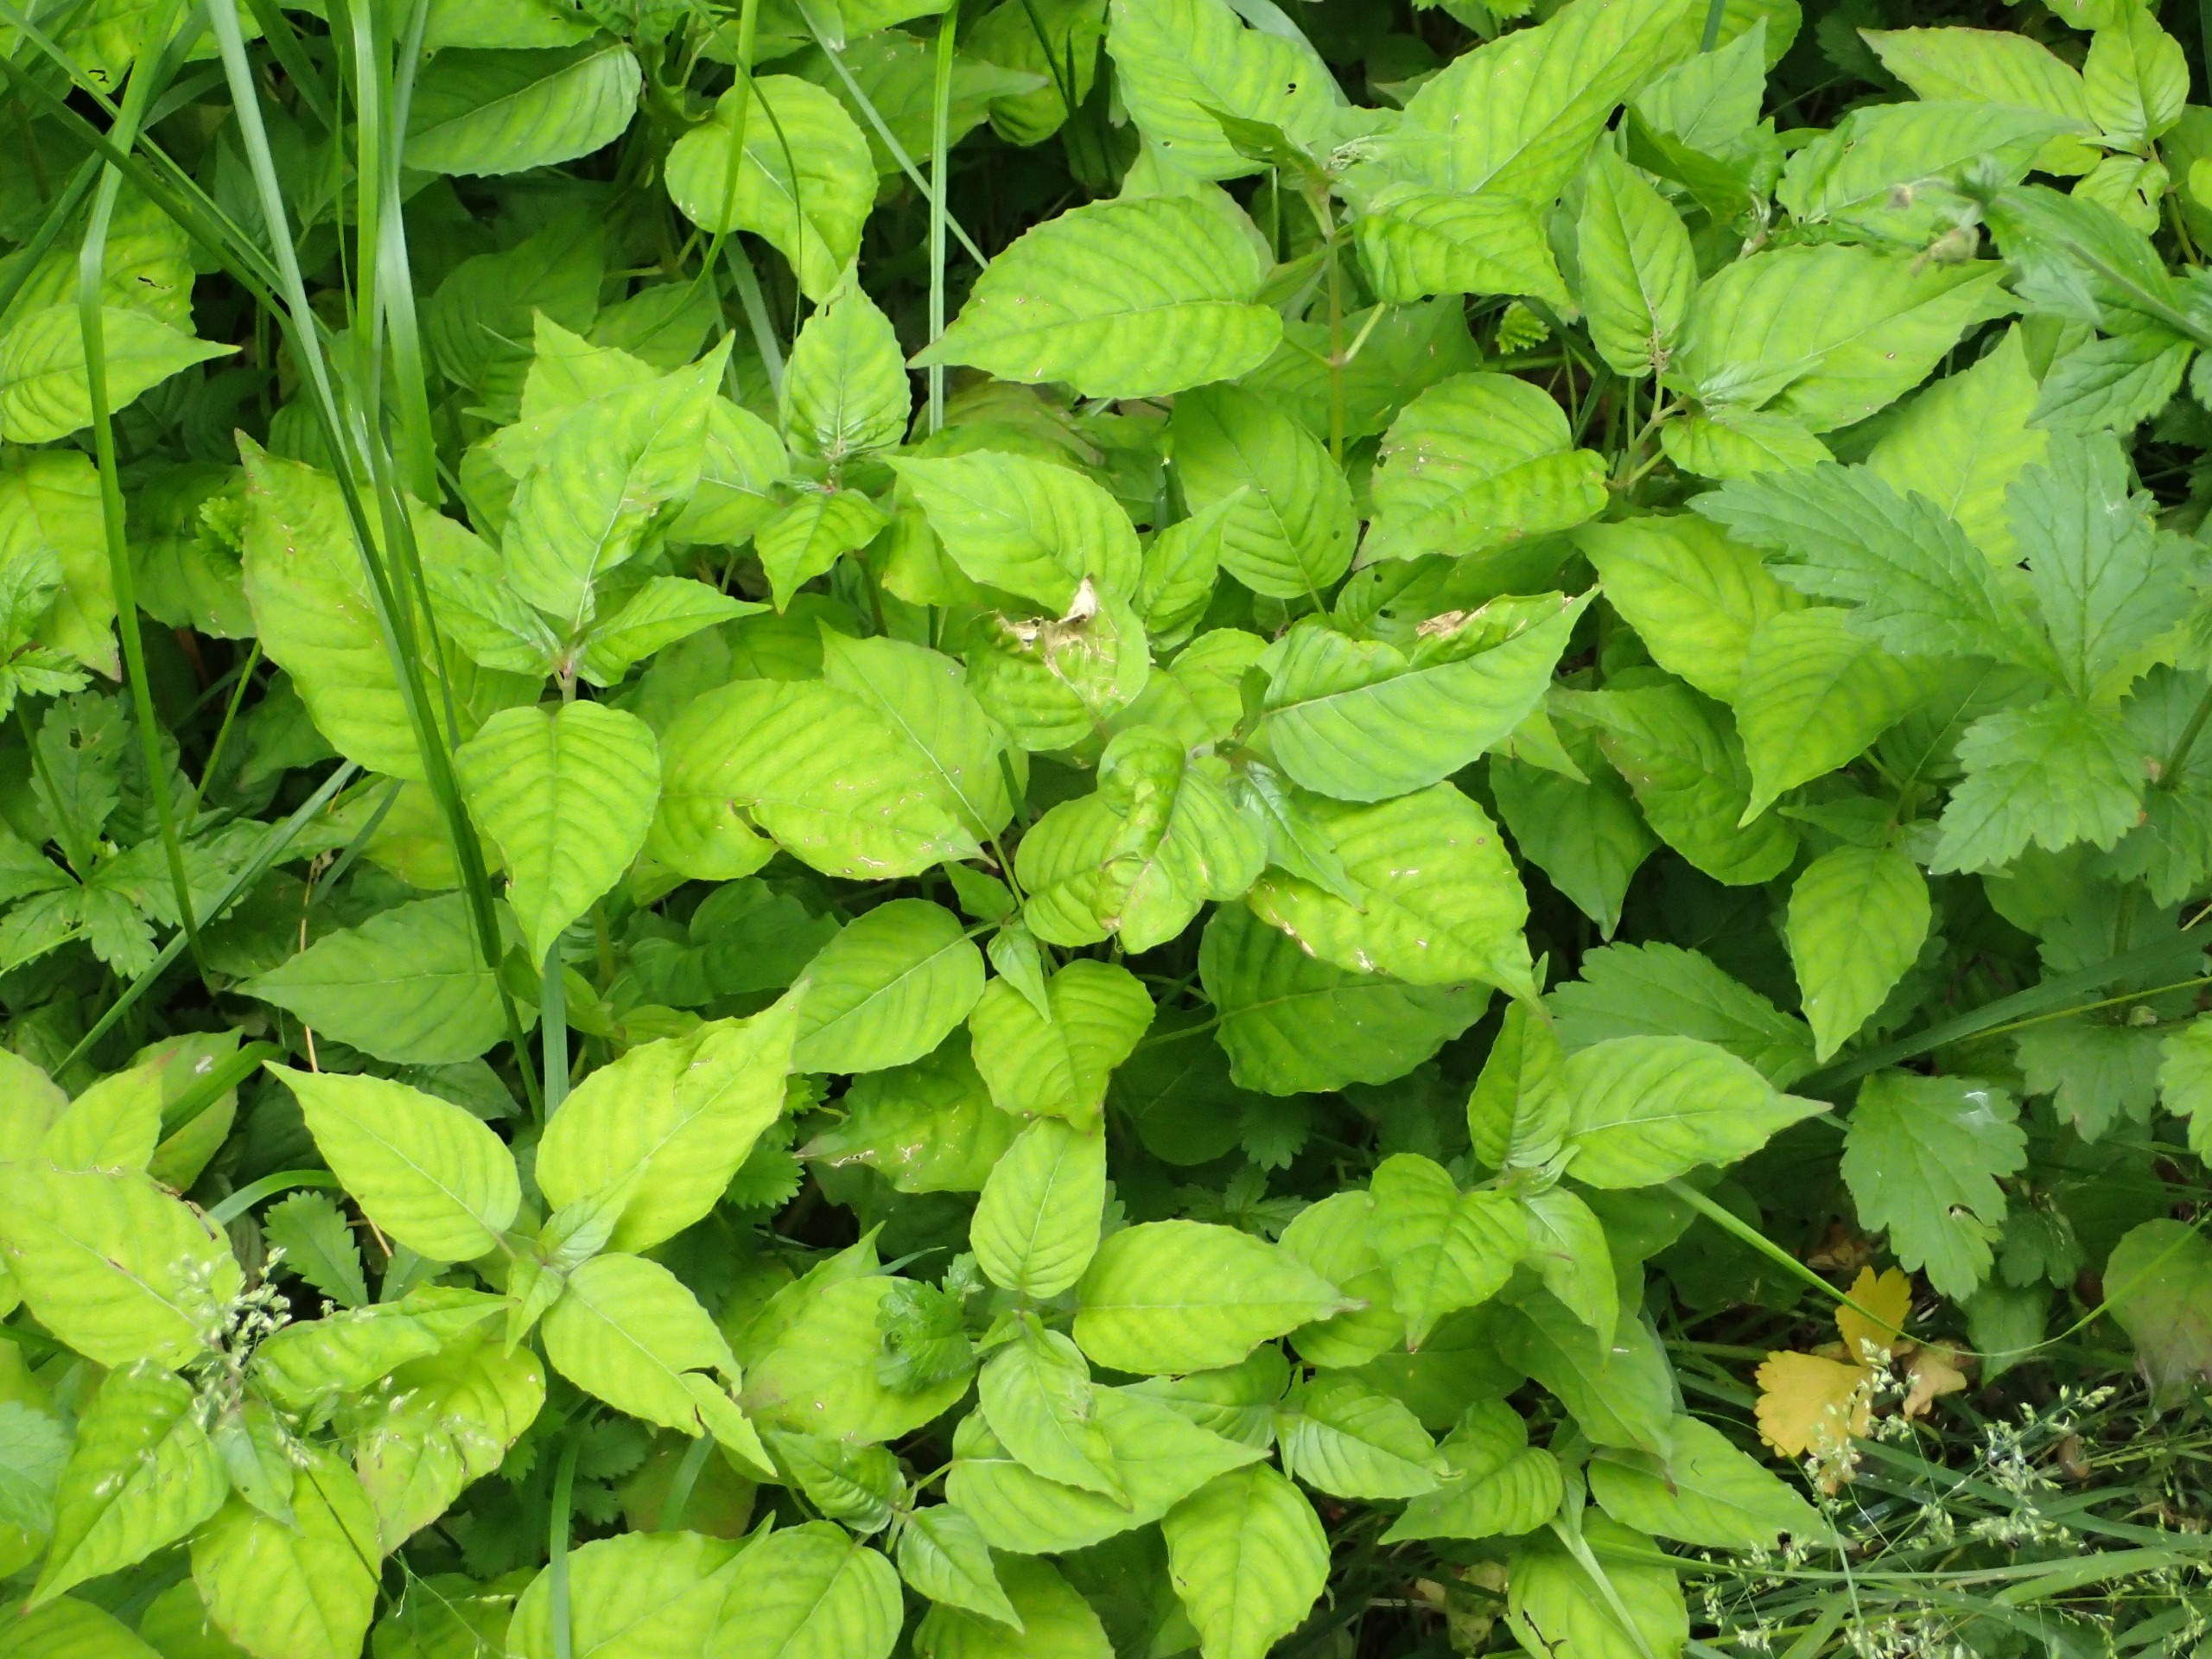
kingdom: Plantae
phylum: Tracheophyta
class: Magnoliopsida
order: Myrtales
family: Onagraceae
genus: Circaea
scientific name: Circaea lutetiana
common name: Dunet steffensurt
